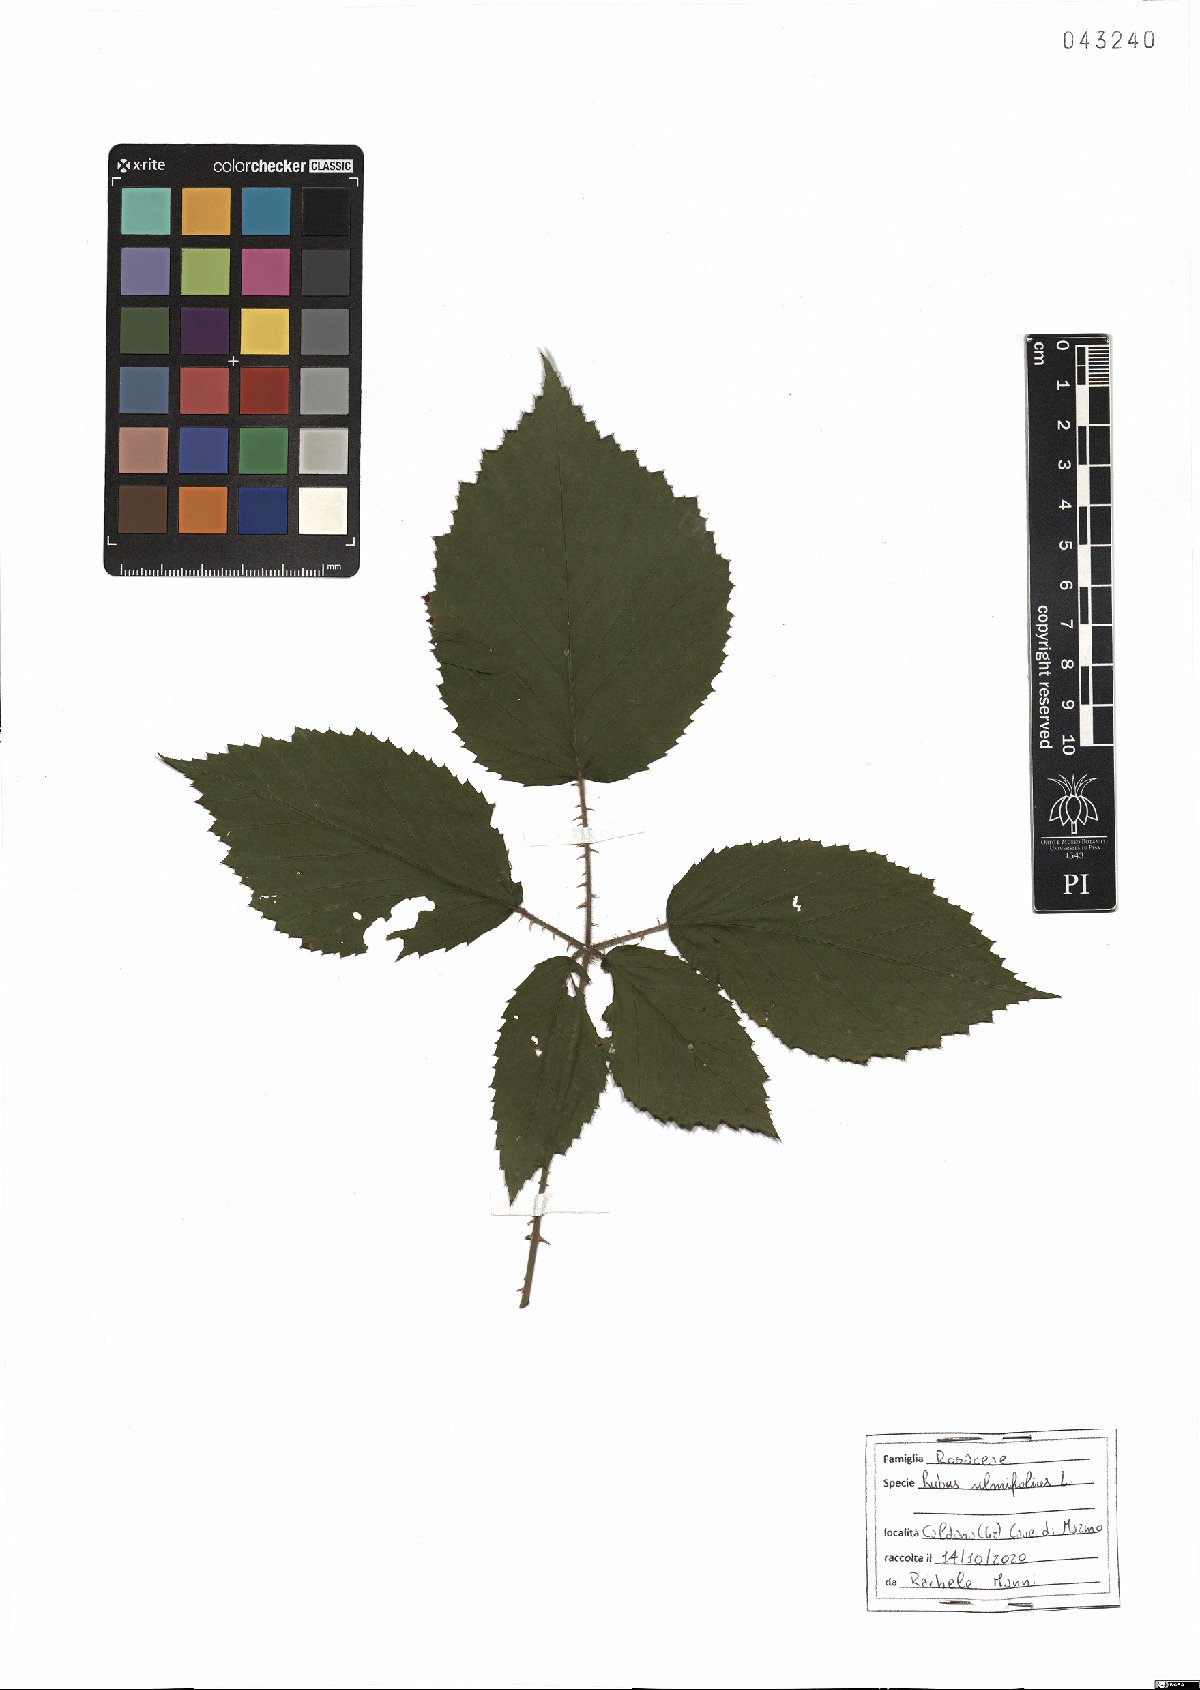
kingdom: Plantae
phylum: Tracheophyta
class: Magnoliopsida
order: Rosales
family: Rosaceae
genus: Rubus
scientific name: Rubus ulmifolius
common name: Elmleaf blackberry
